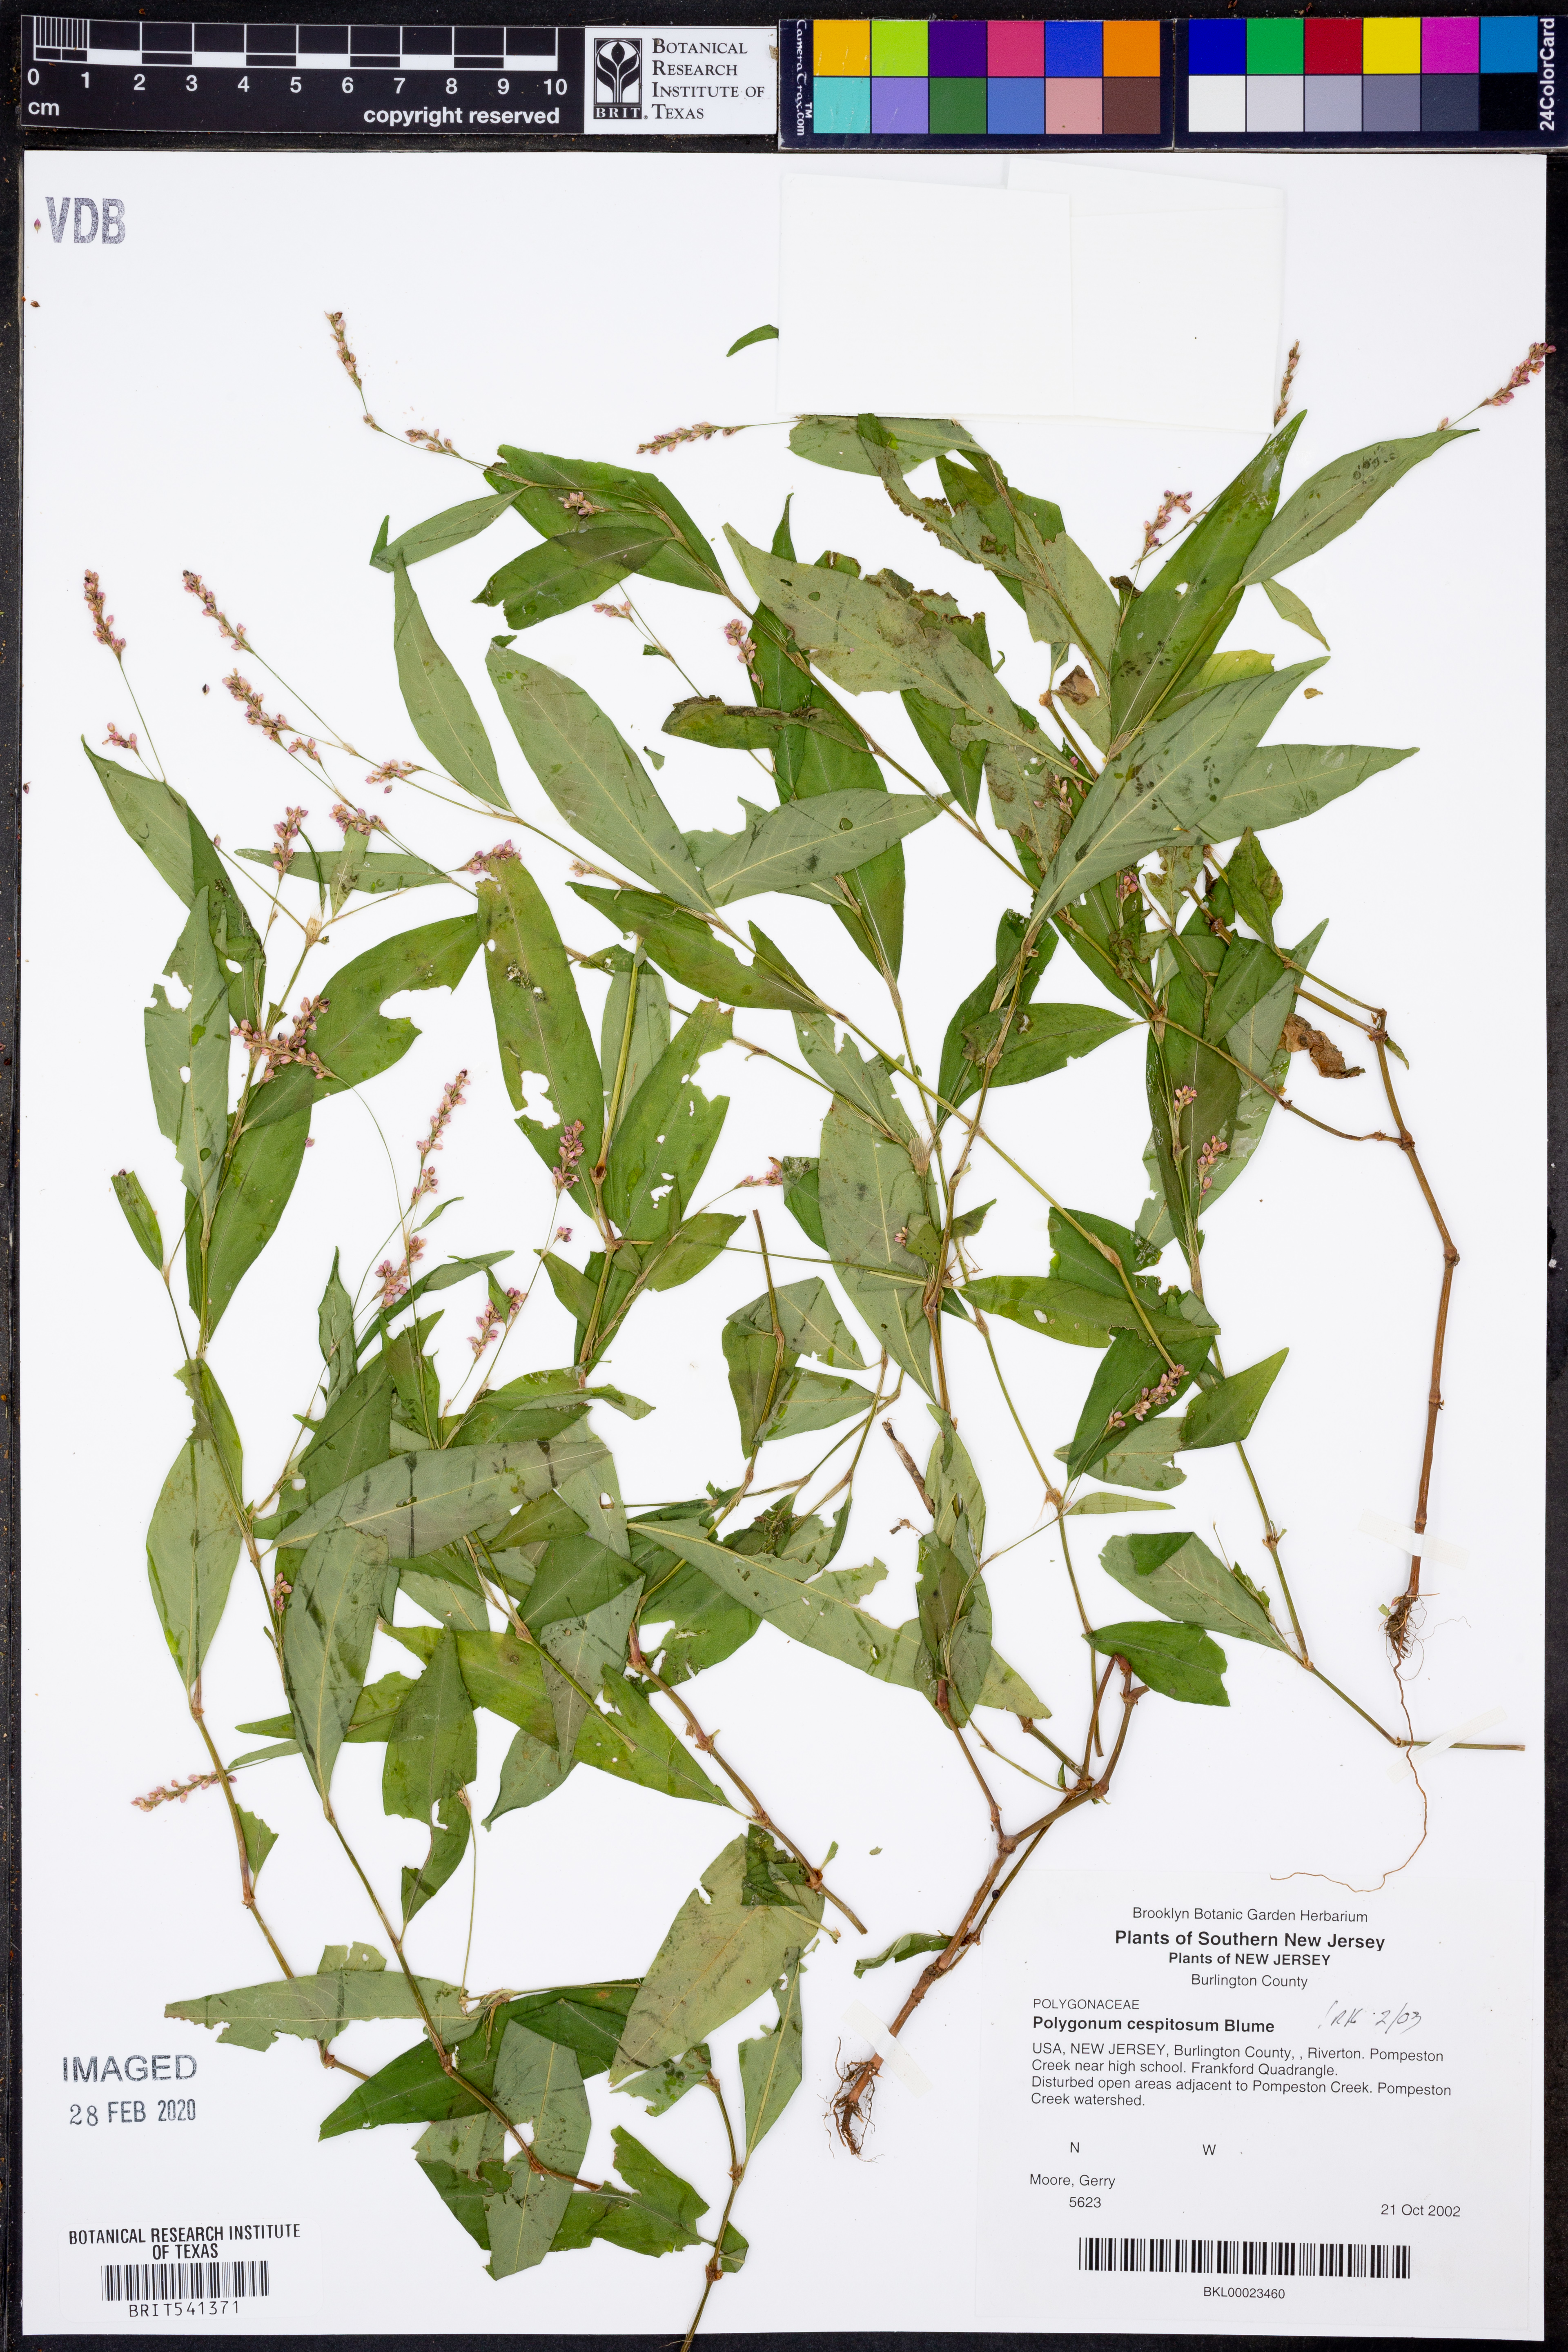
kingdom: Plantae
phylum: Tracheophyta
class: Magnoliopsida
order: Caryophyllales
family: Polygonaceae
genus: Persicaria
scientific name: Persicaria posumbu
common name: Oriental lady's thumb
